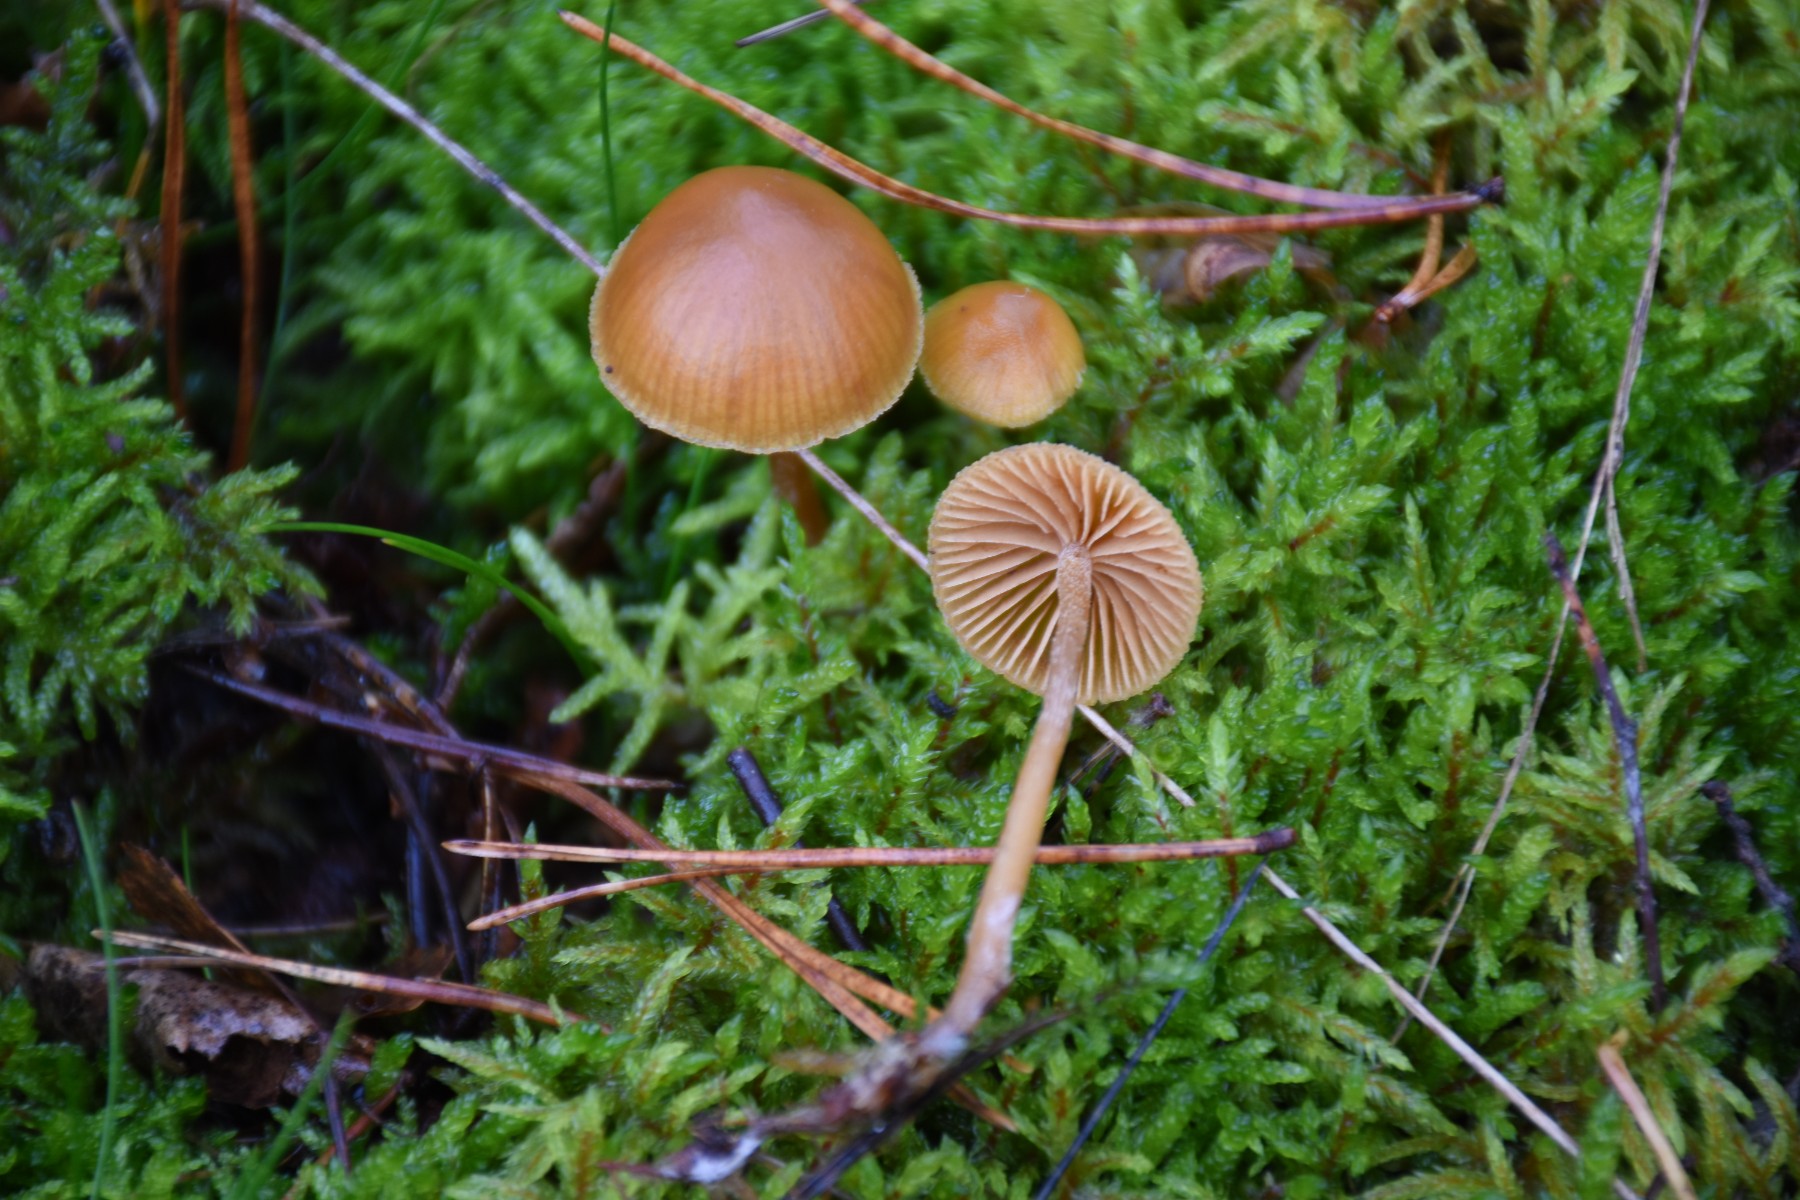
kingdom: Fungi
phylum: Basidiomycota
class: Agaricomycetes
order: Agaricales
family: Hymenogastraceae
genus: Galerina
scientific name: Galerina
